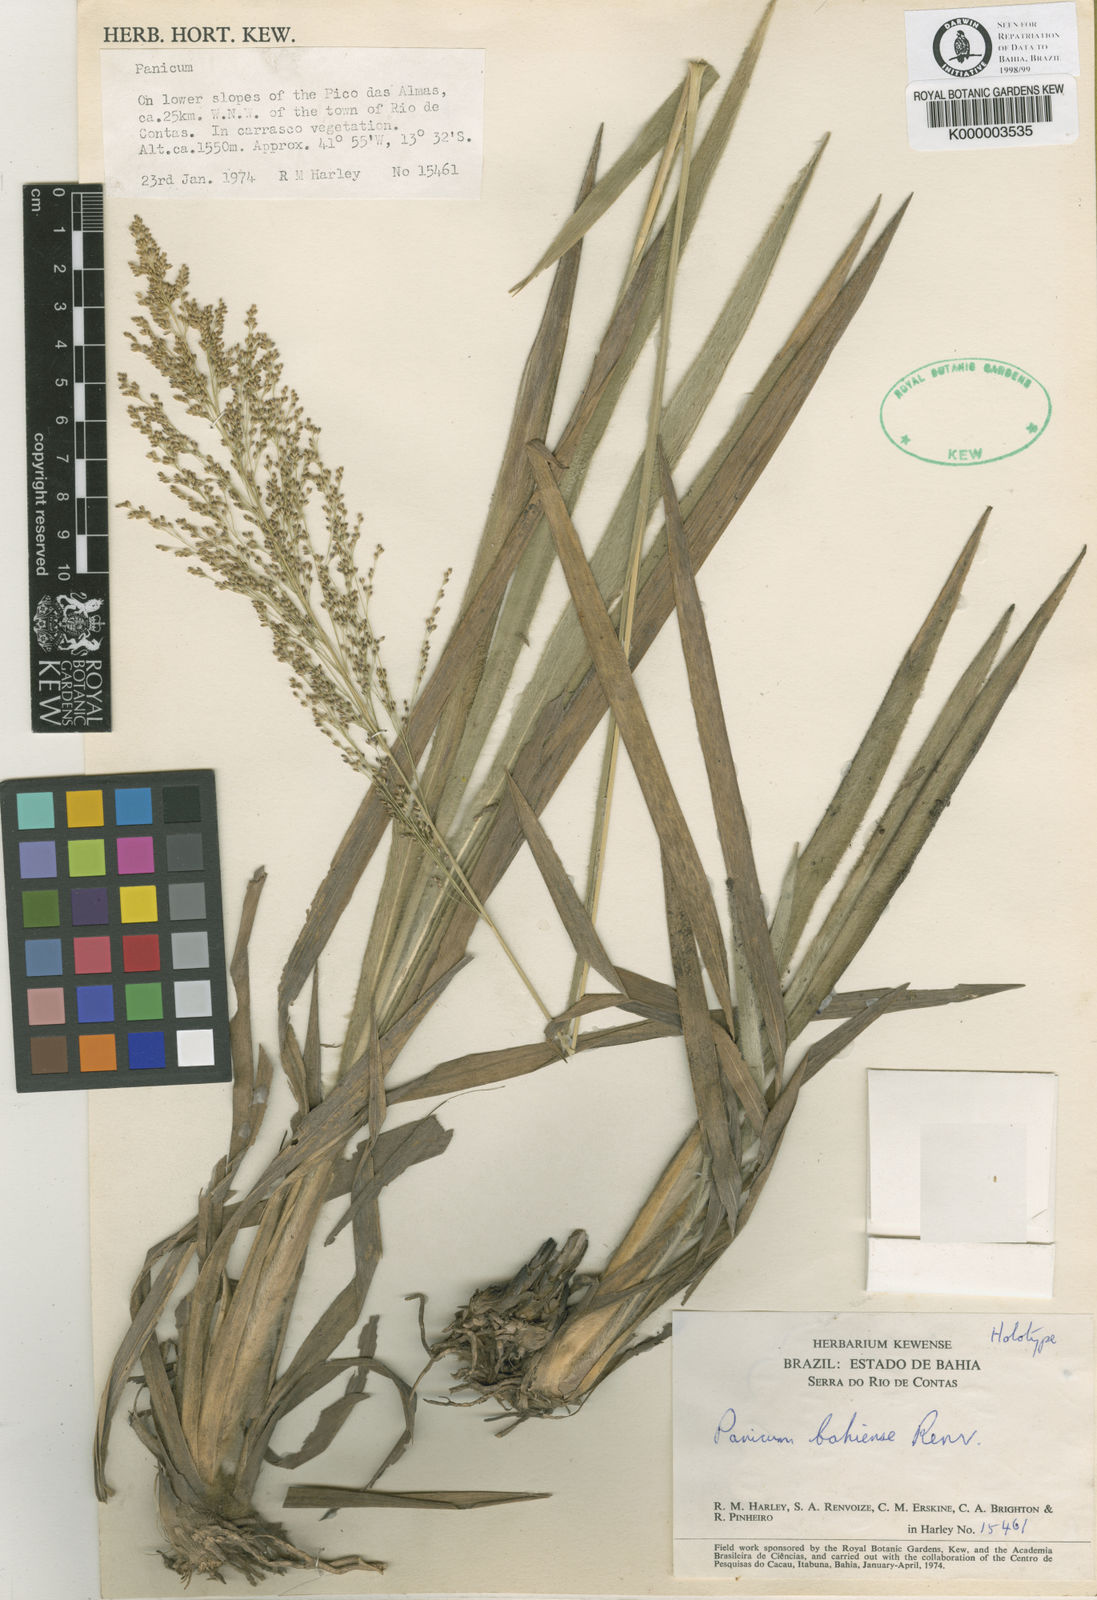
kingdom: Plantae
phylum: Tracheophyta
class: Liliopsida
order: Poales
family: Poaceae
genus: Apochloa
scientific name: Apochloa bahiensis
